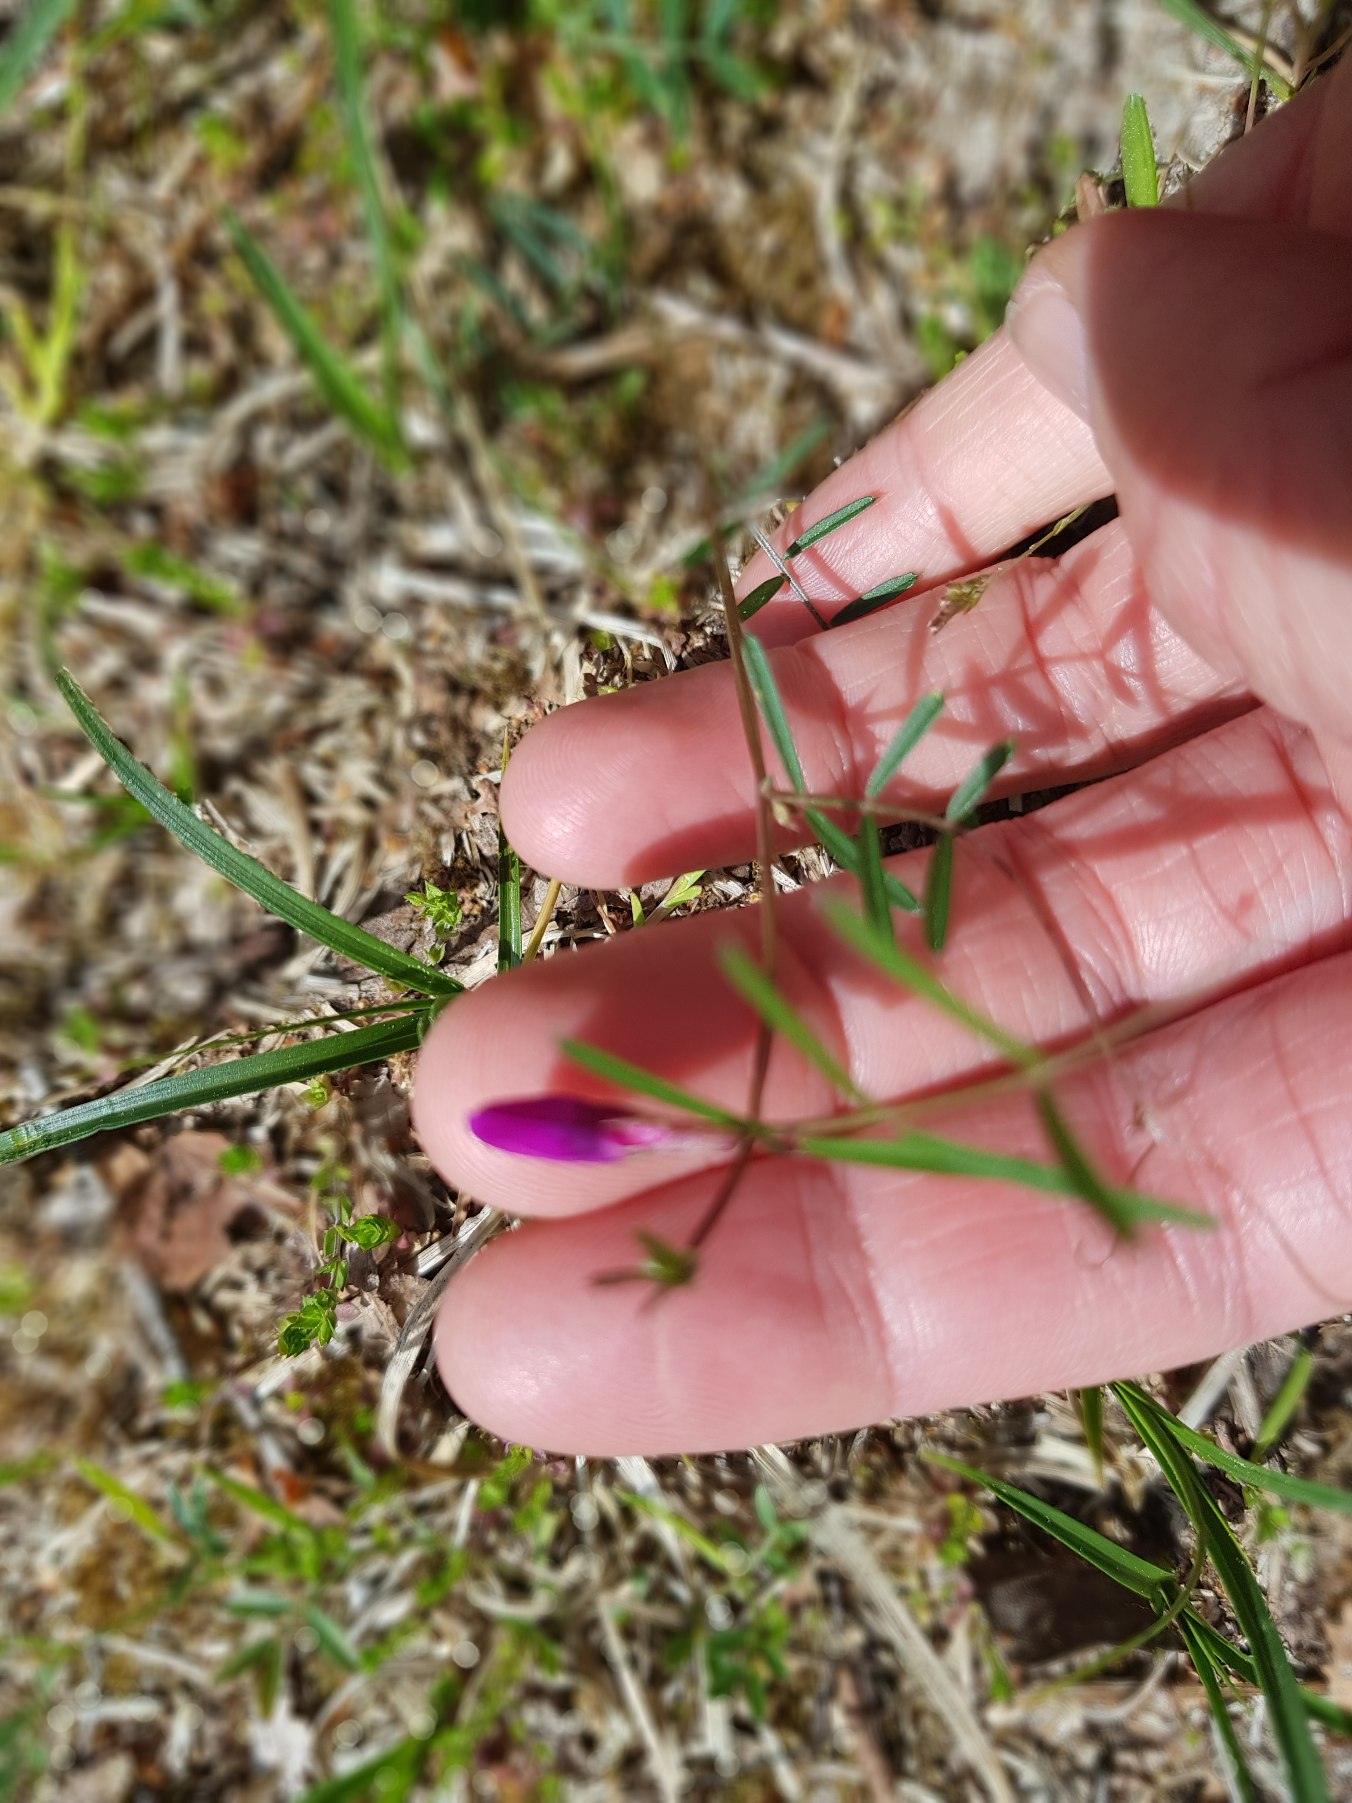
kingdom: Plantae
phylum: Tracheophyta
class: Magnoliopsida
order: Fabales
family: Fabaceae
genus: Vicia
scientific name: Vicia sativa
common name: Smalbladet vikke
